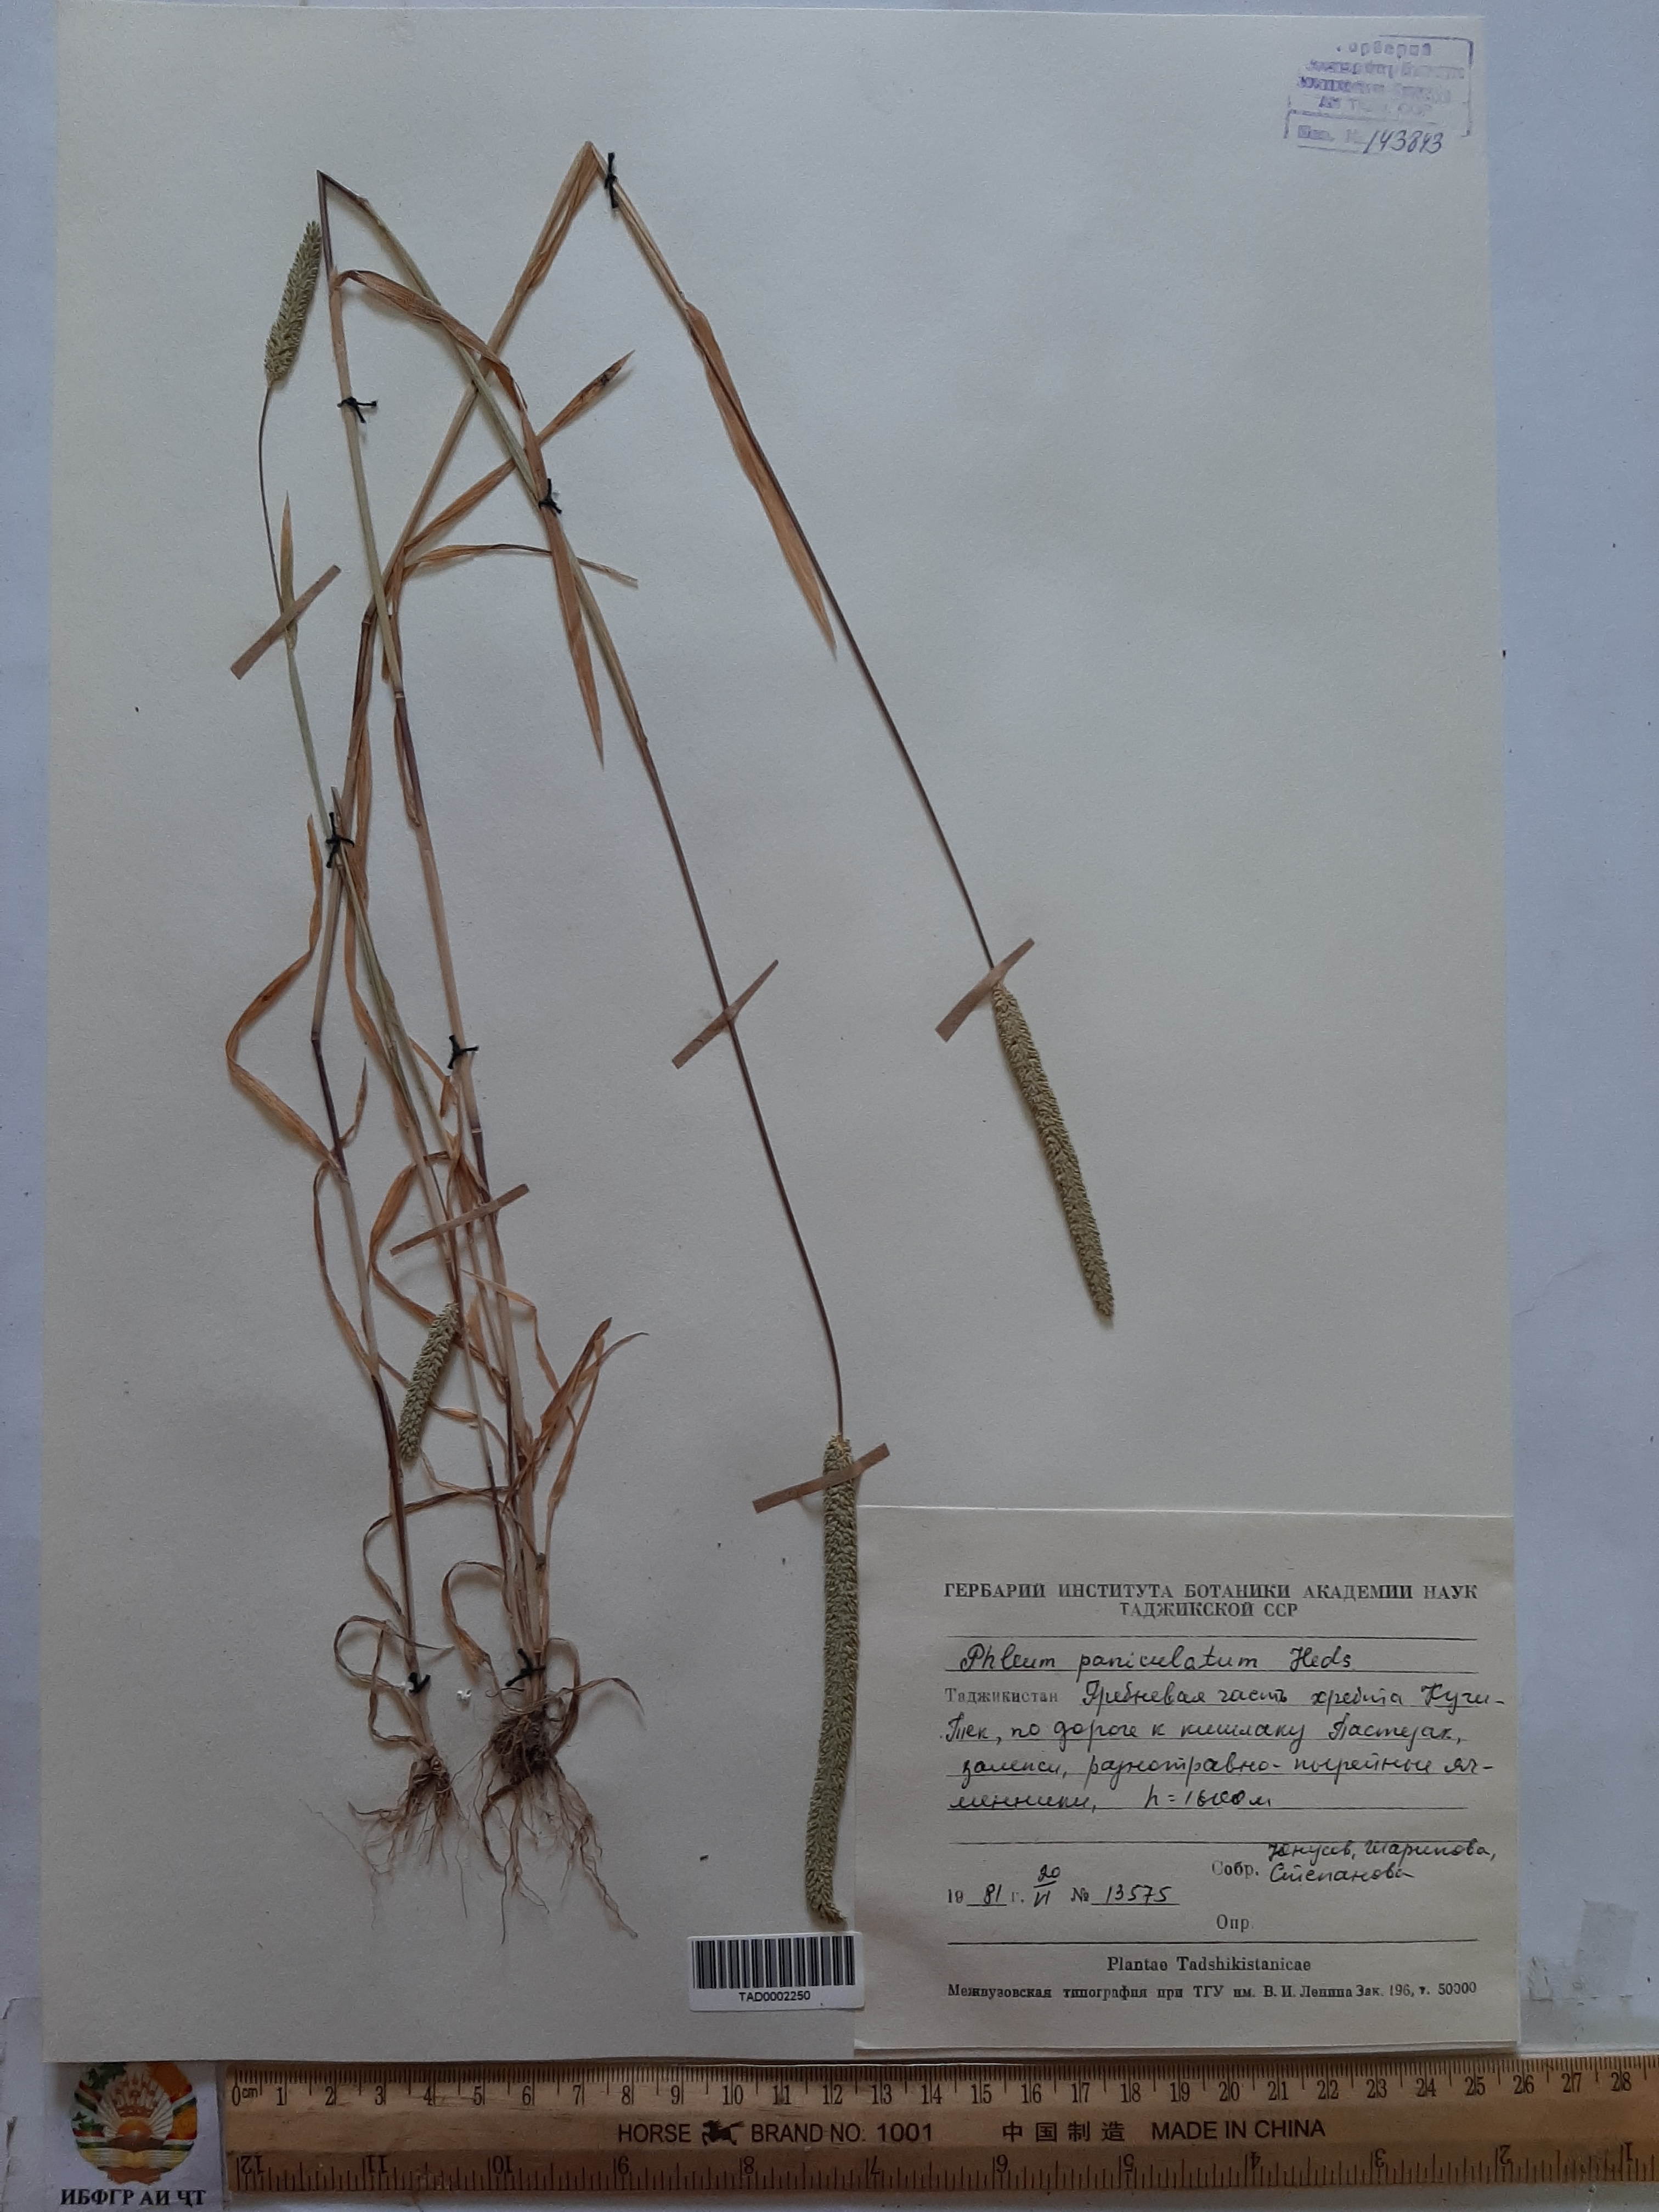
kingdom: Plantae
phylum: Tracheophyta
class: Liliopsida
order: Poales
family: Poaceae
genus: Phleum
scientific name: Phleum paniculatum
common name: British timothy
